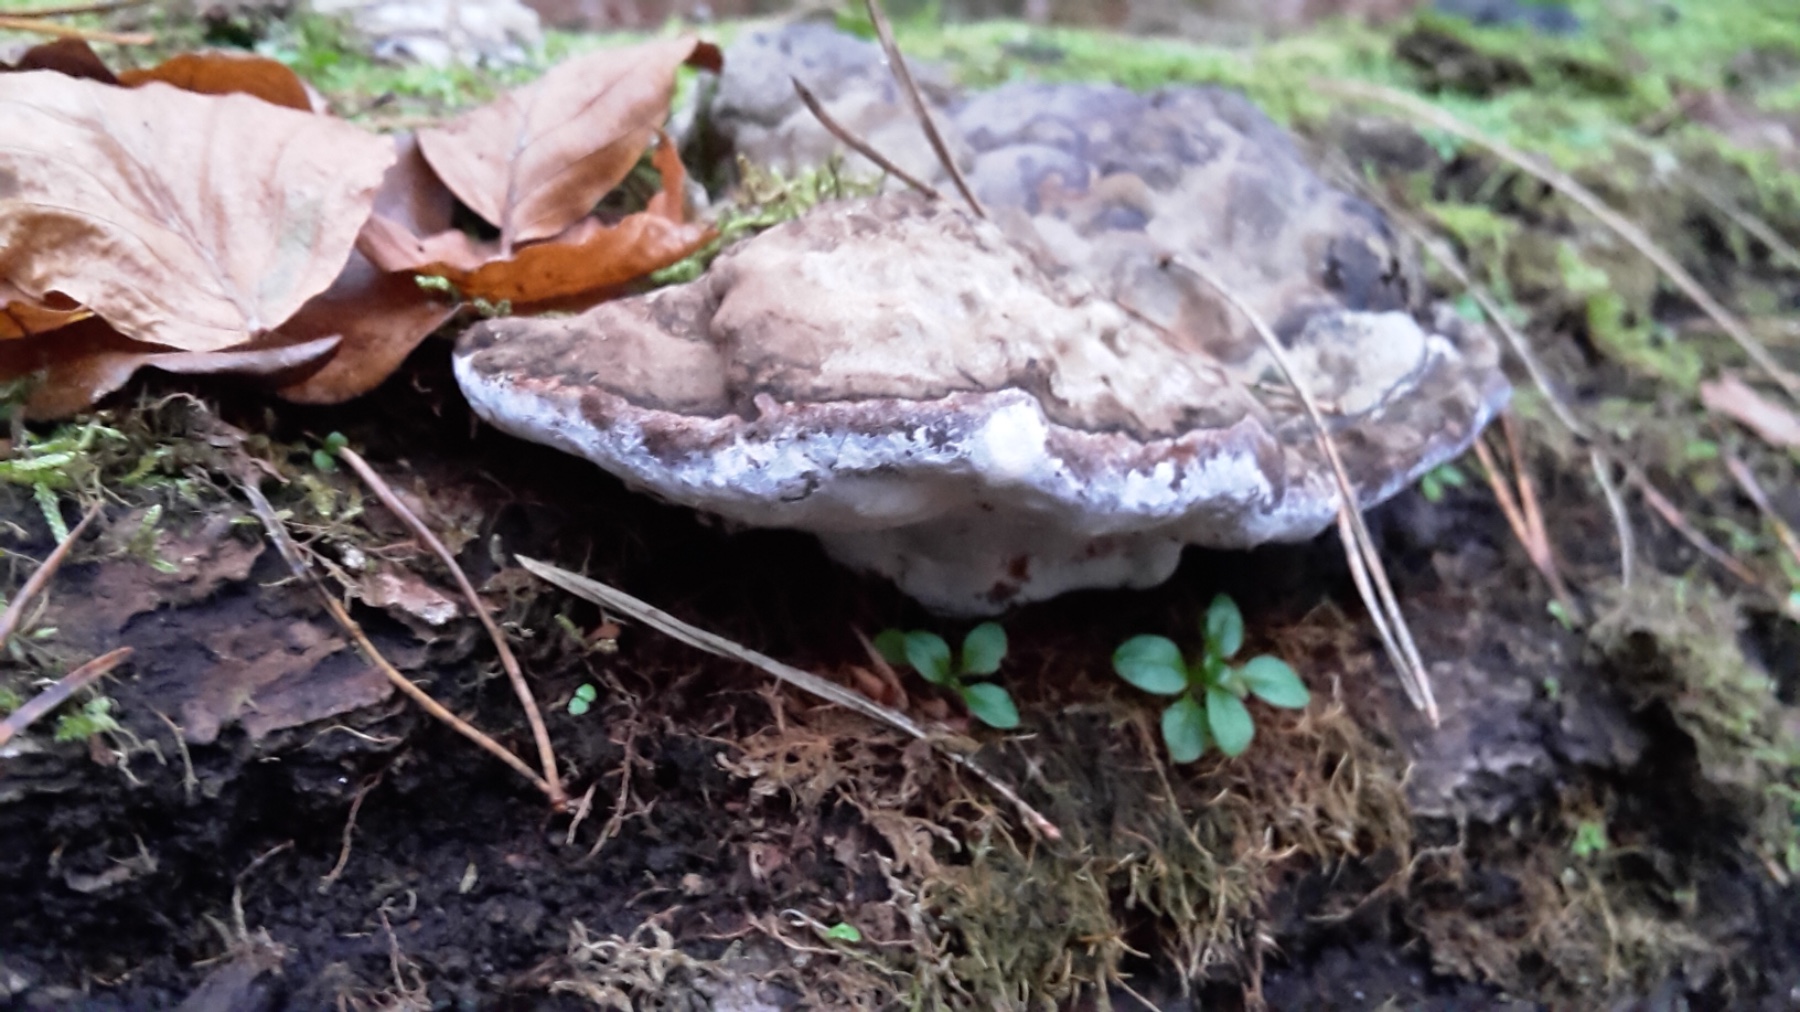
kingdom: Fungi
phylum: Basidiomycota
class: Agaricomycetes
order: Polyporales
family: Polyporaceae
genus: Ganoderma
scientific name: Ganoderma applanatum
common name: flad lakporesvamp
